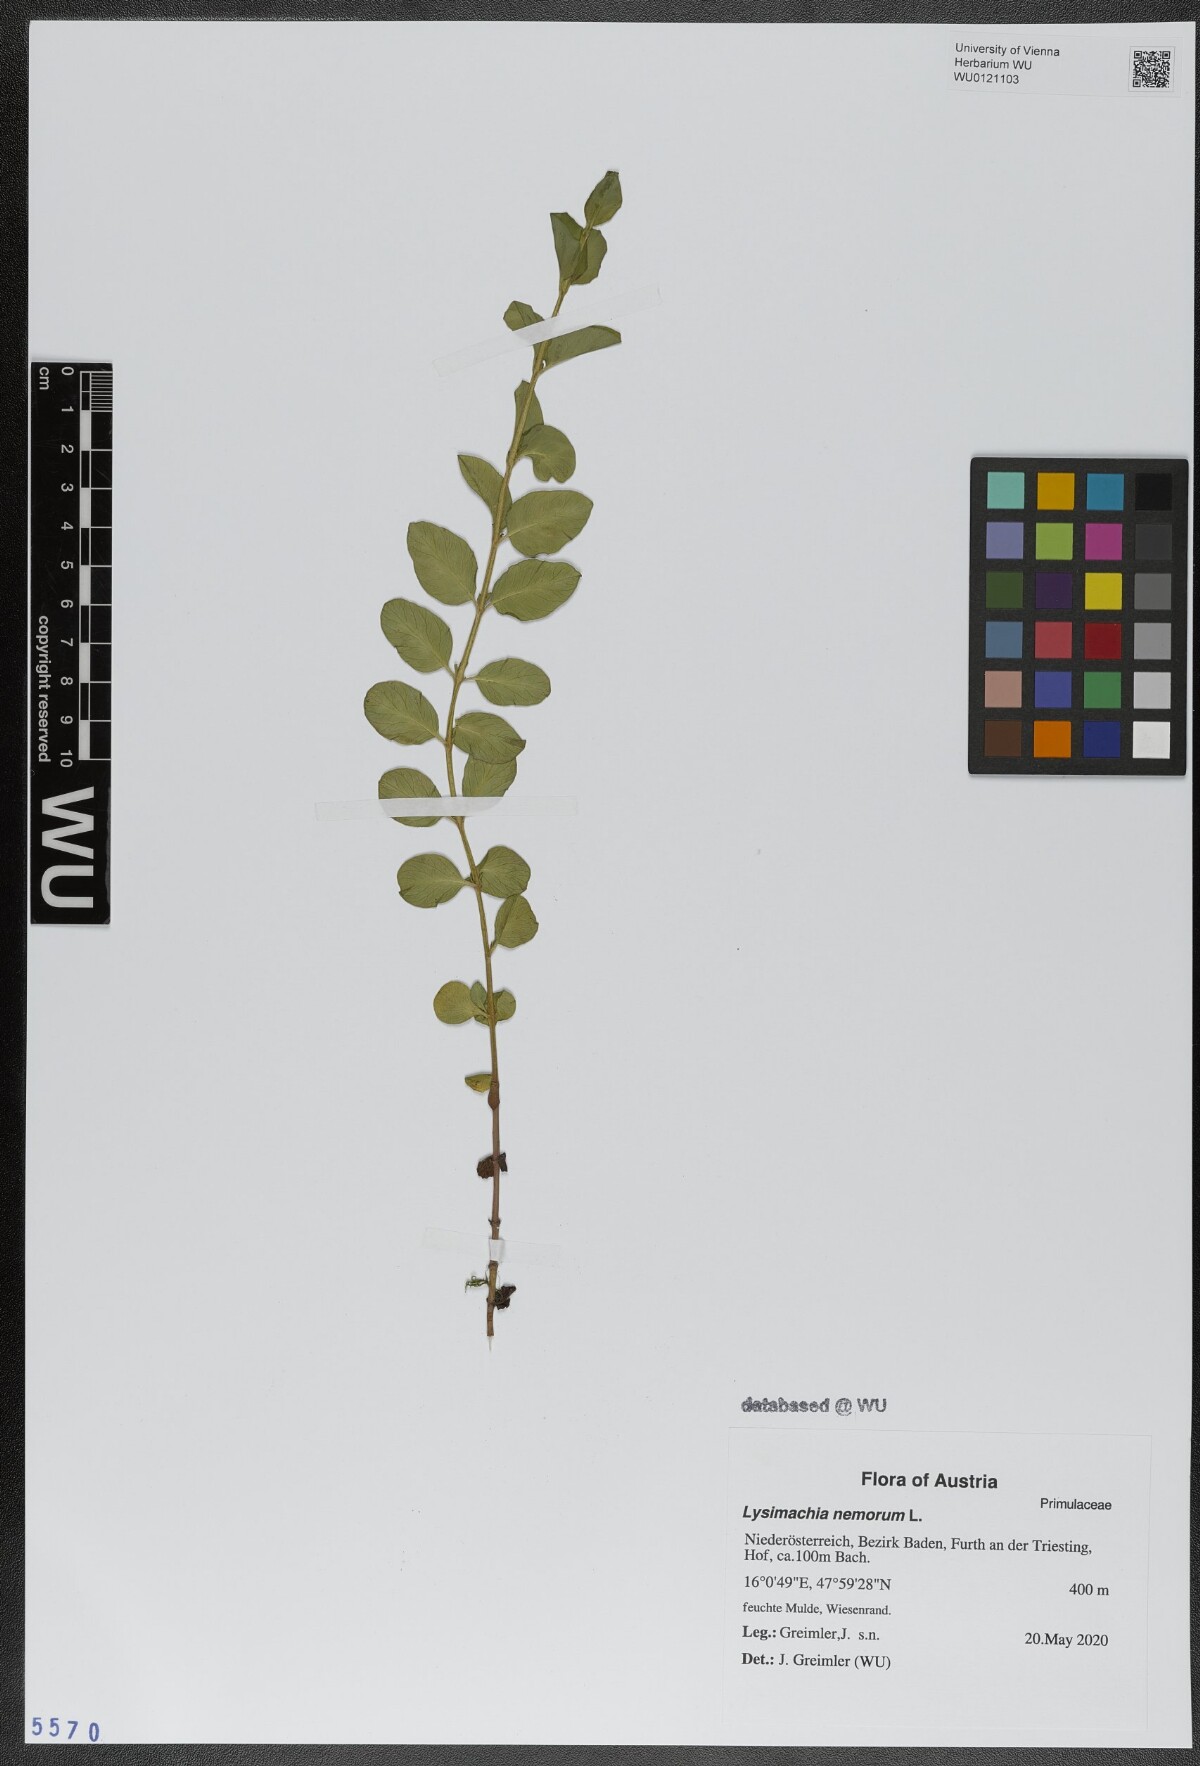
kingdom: Plantae
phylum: Tracheophyta
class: Magnoliopsida
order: Ericales
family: Primulaceae
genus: Lysimachia
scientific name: Lysimachia nemorum
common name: Yellow pimpernel
